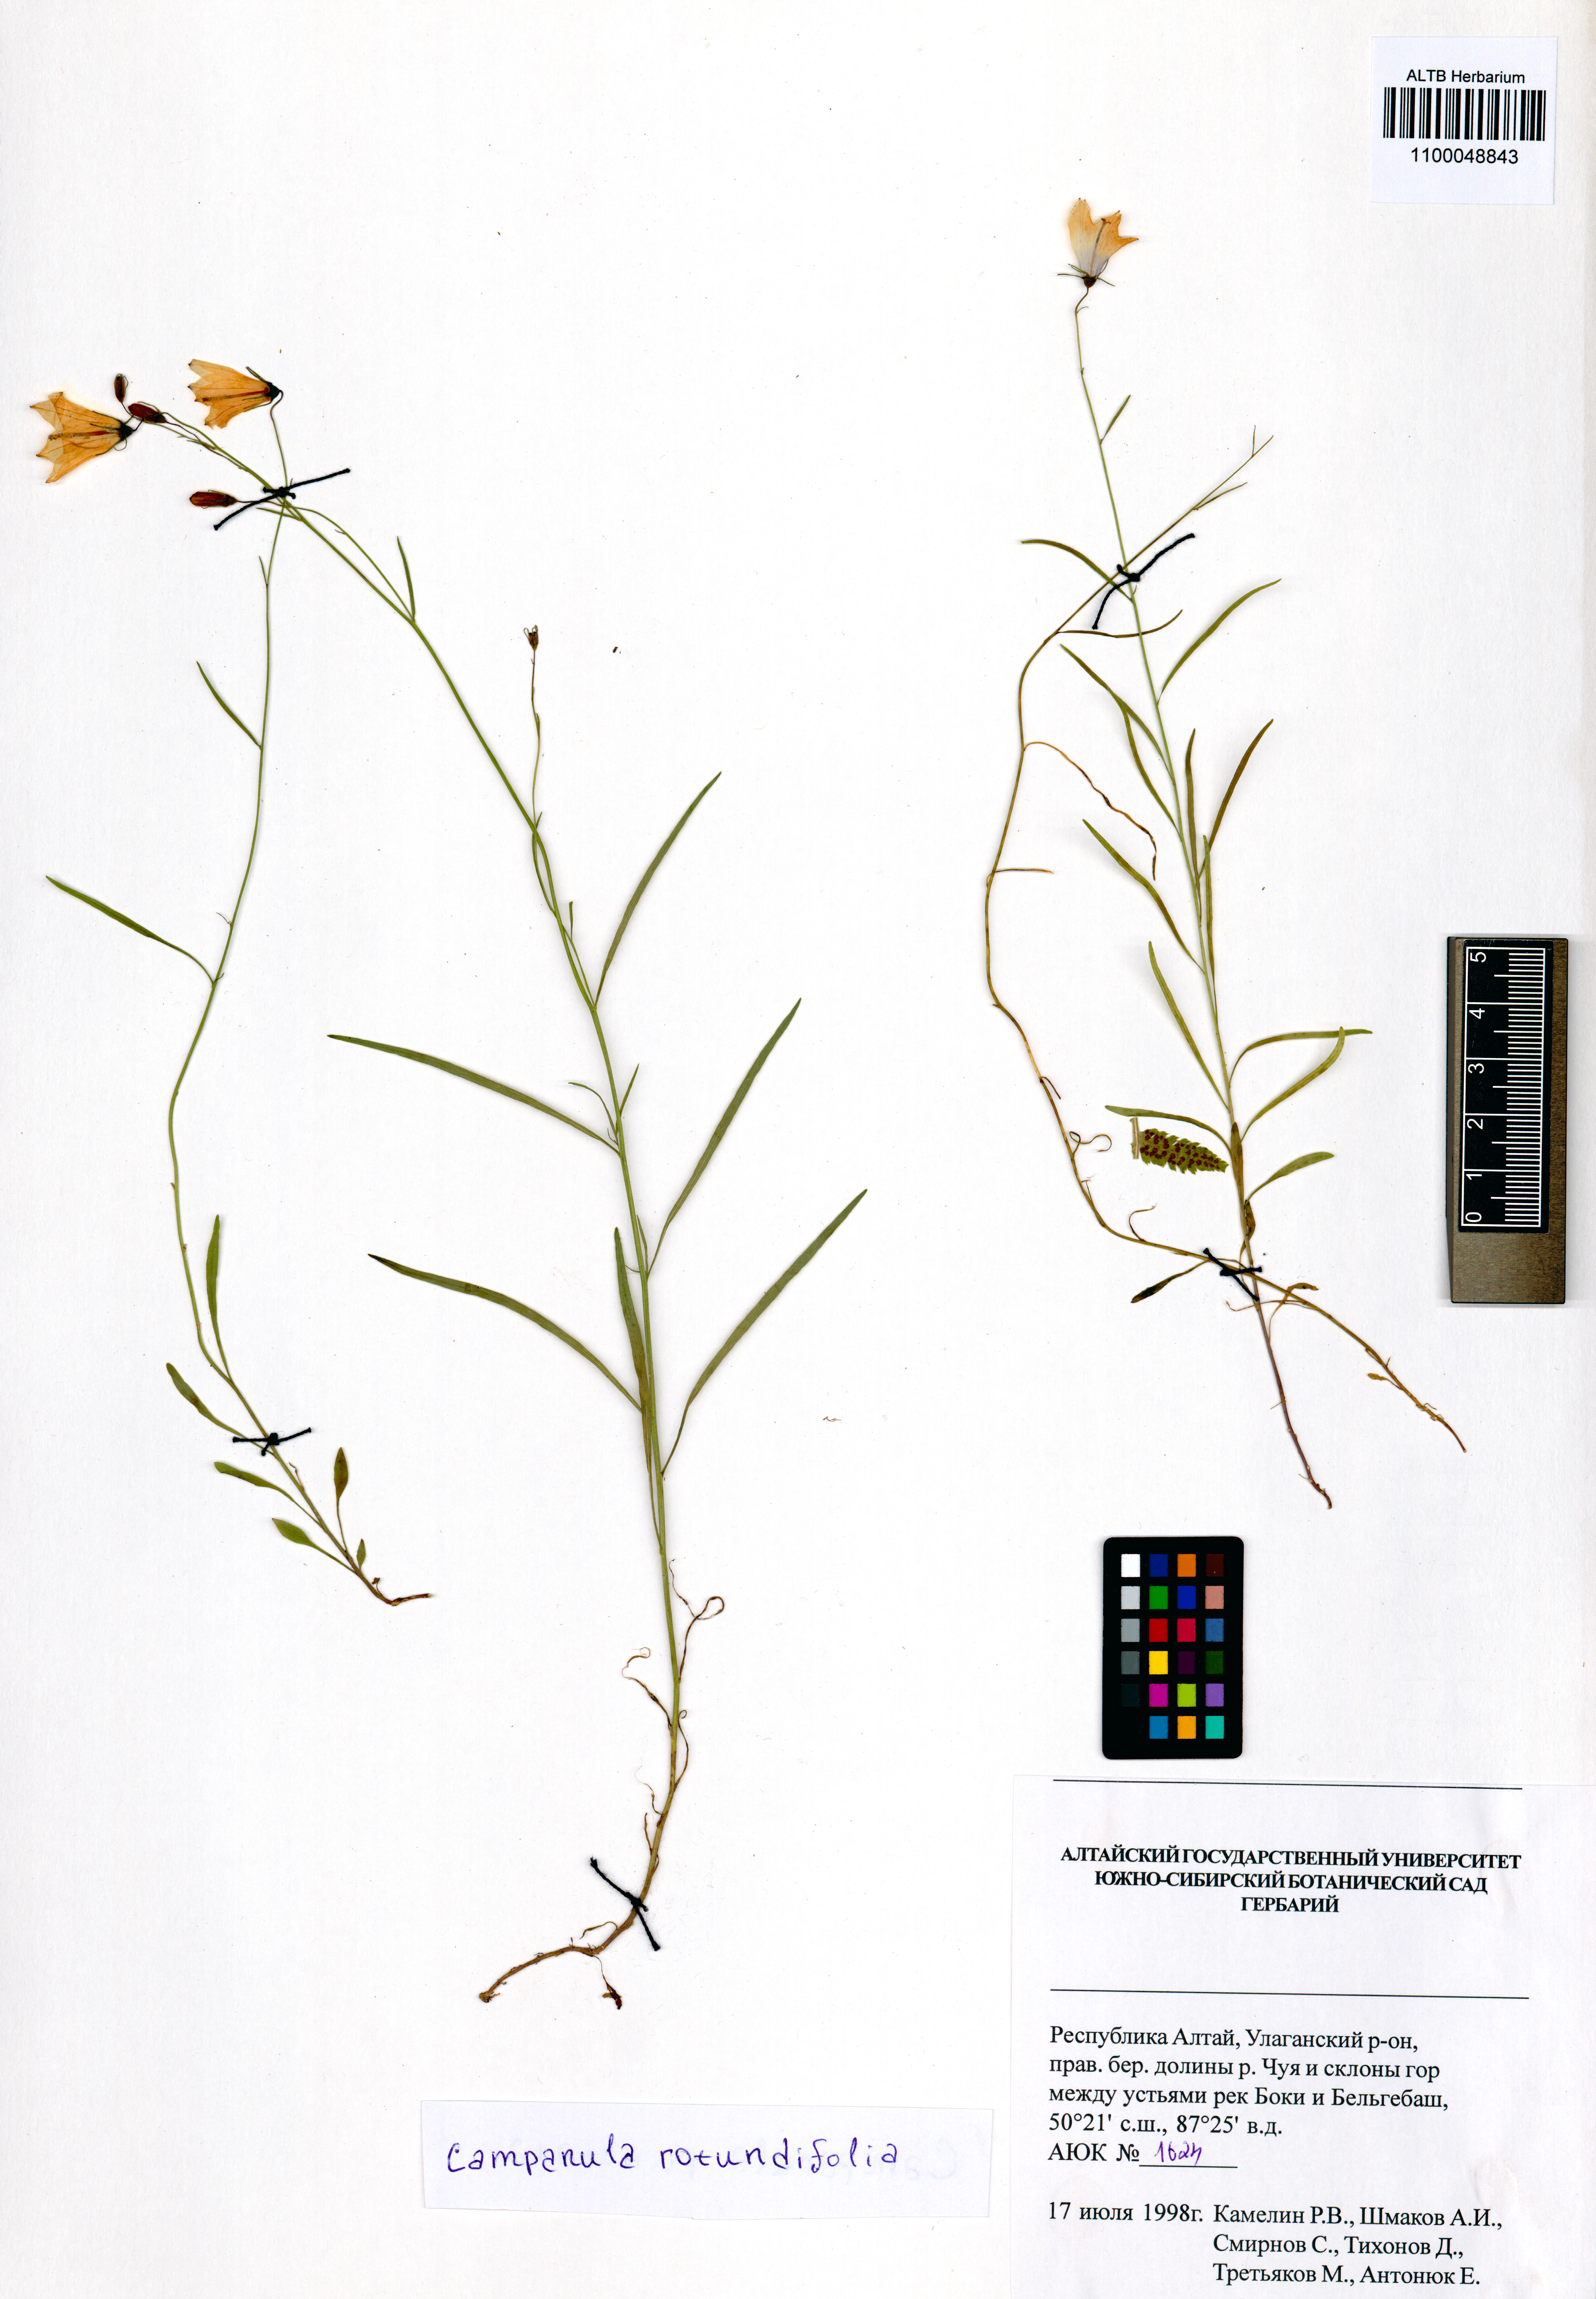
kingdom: Plantae
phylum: Tracheophyta
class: Magnoliopsida
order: Asterales
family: Campanulaceae
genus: Campanula
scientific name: Campanula rotundifolia
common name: Harebell
